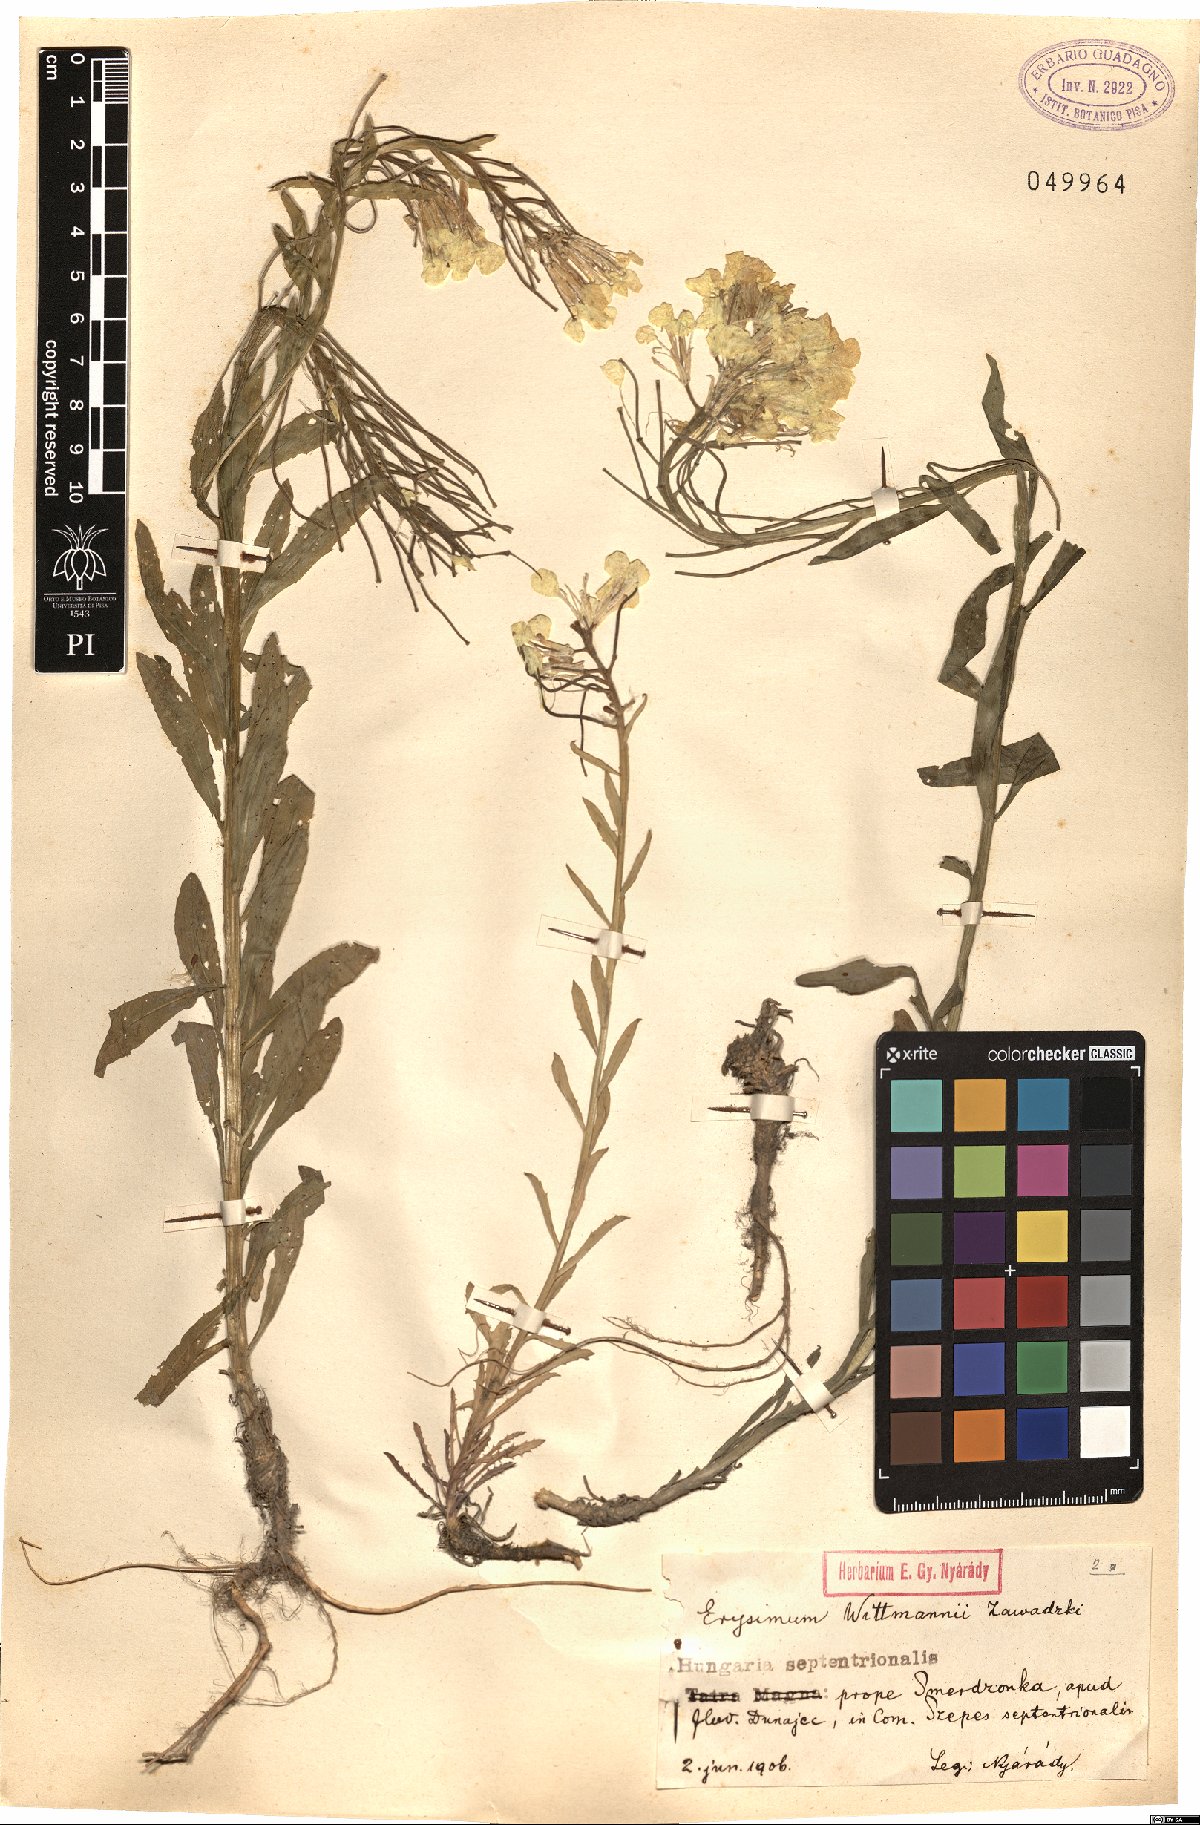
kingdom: Plantae
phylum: Tracheophyta
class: Magnoliopsida
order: Brassicales
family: Brassicaceae
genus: Erysimum
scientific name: Erysimum witmannii
